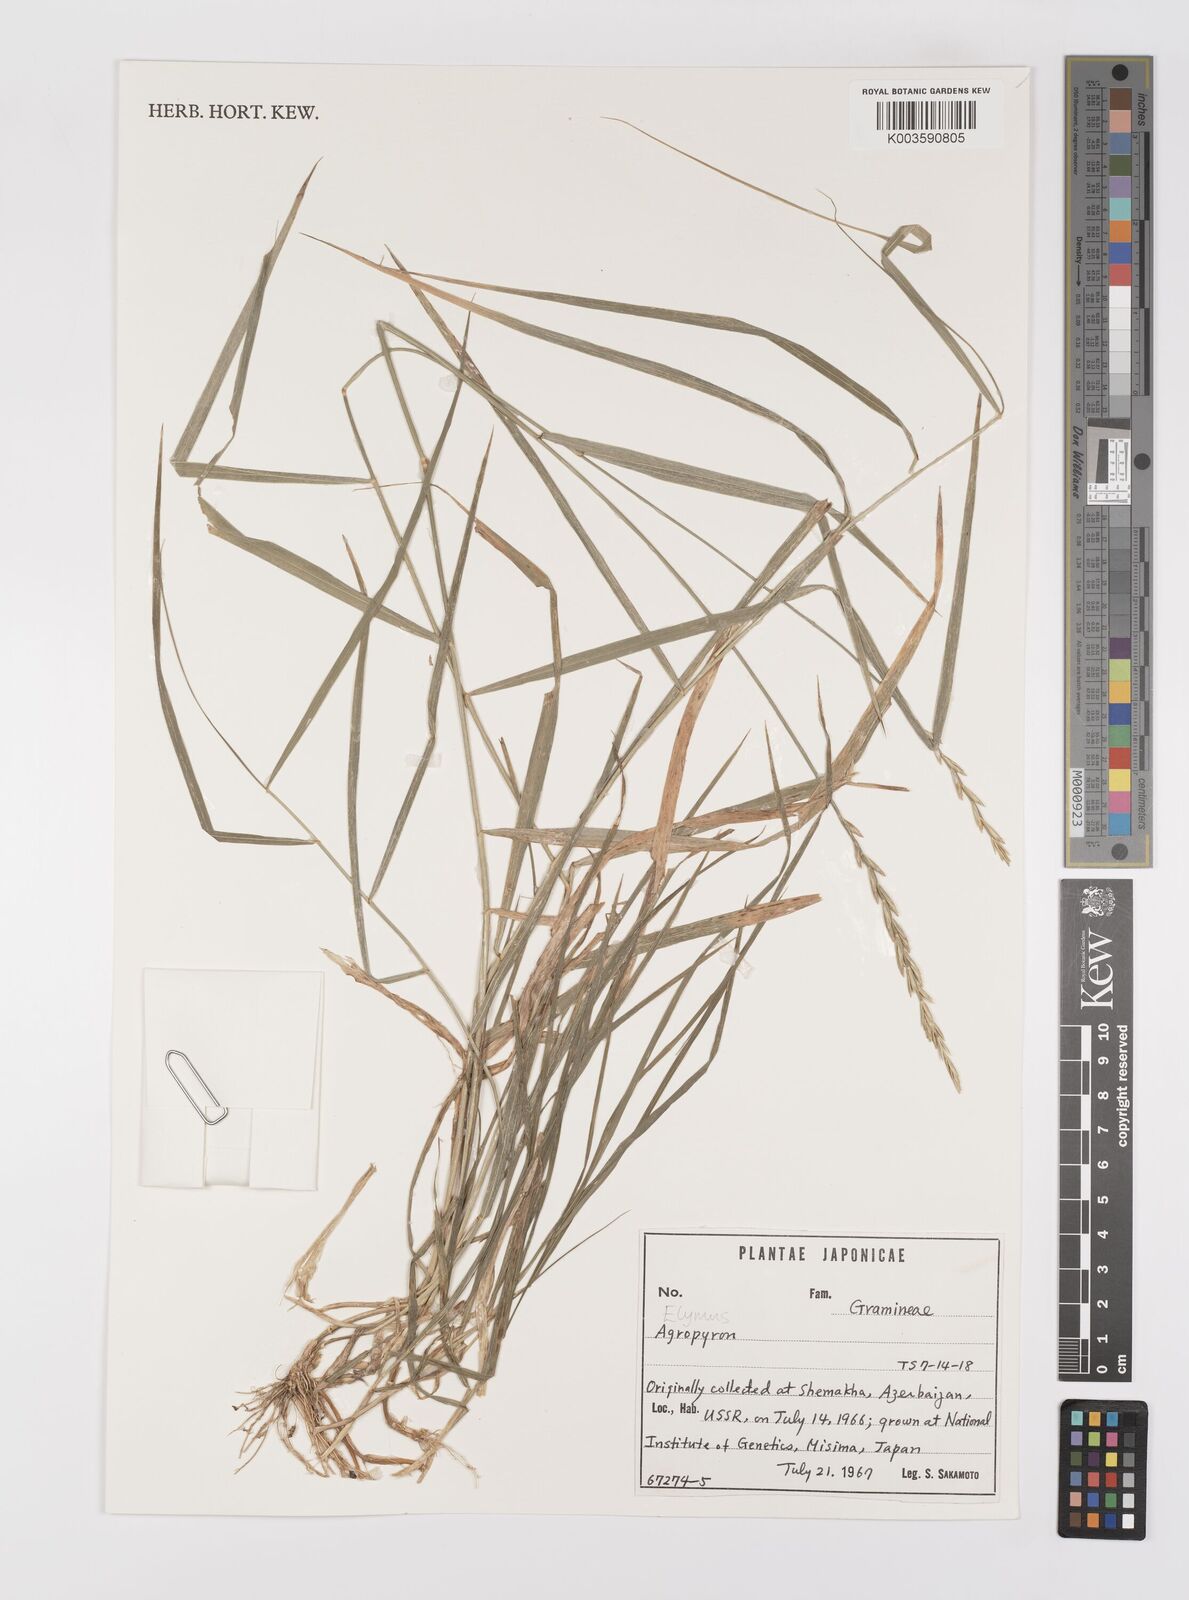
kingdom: Plantae
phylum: Tracheophyta
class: Liliopsida
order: Poales
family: Poaceae
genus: Elymus
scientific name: Elymus
